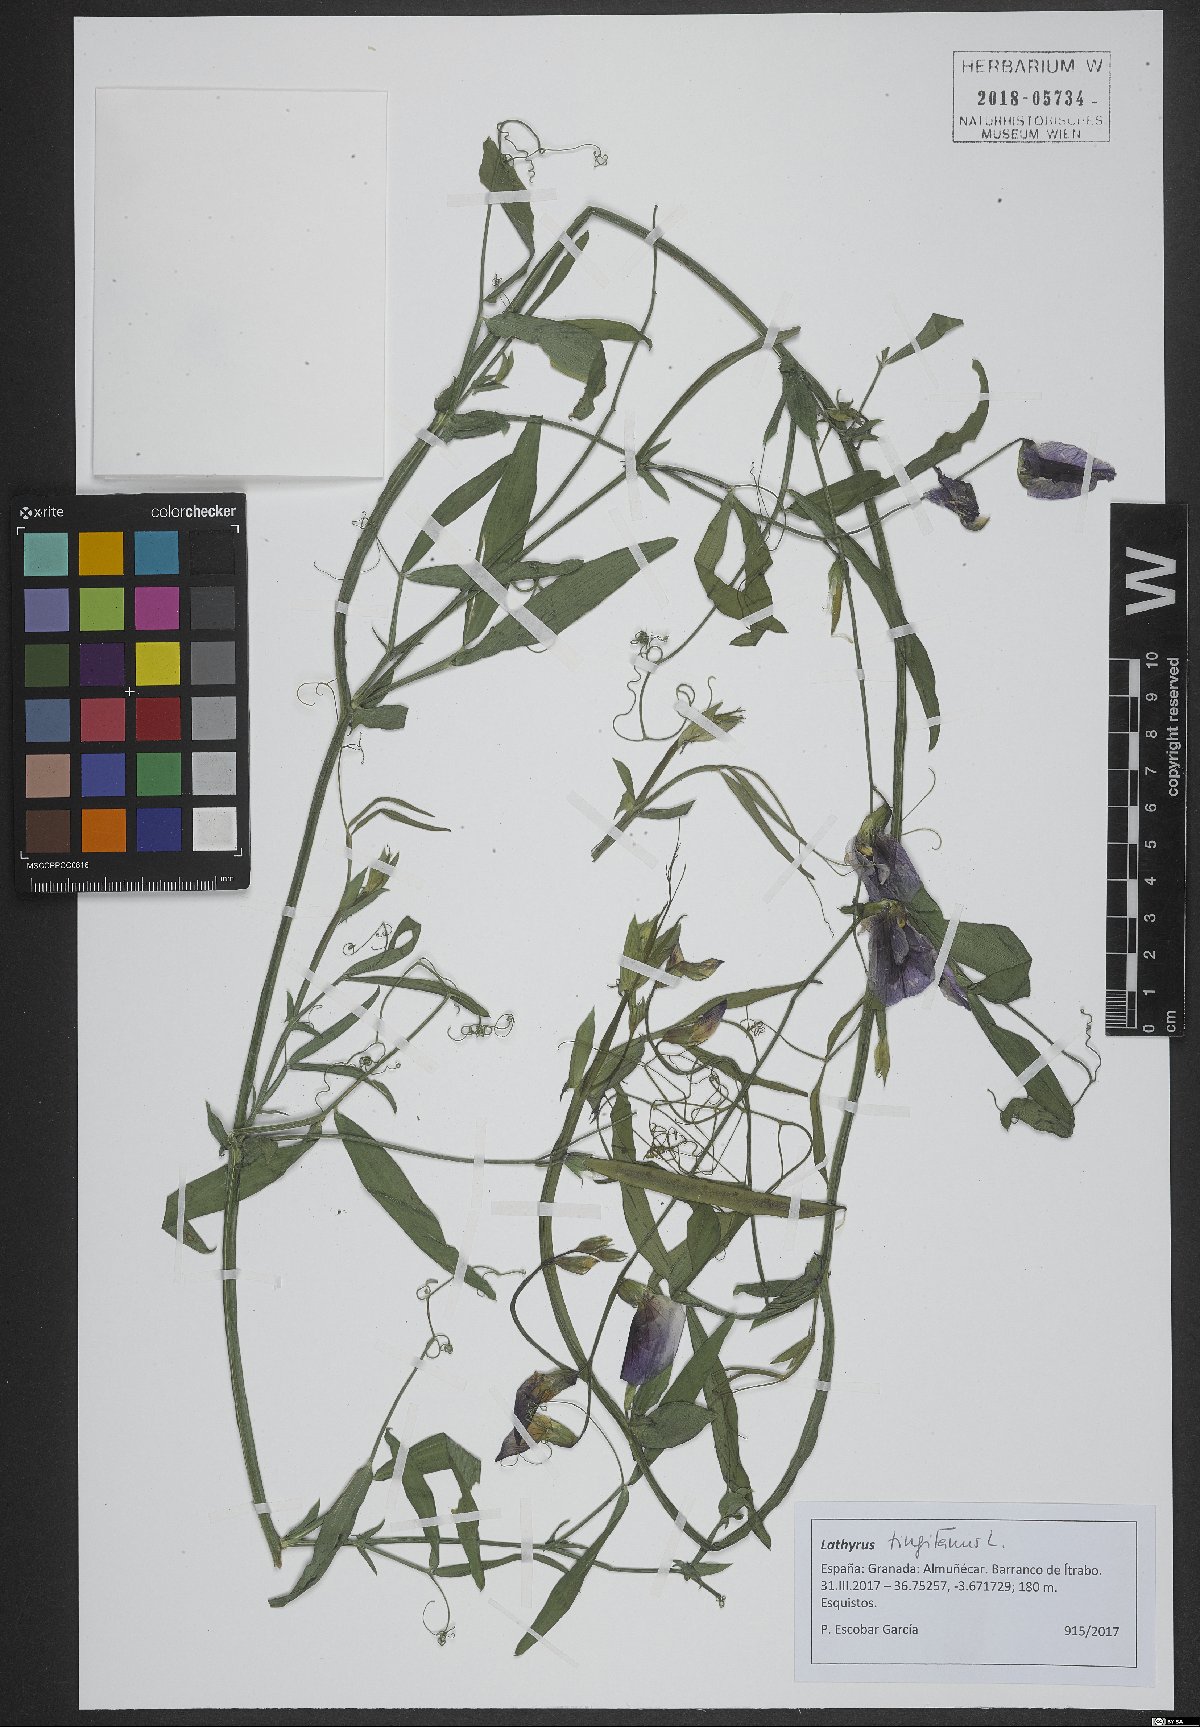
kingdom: Plantae
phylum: Tracheophyta
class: Magnoliopsida
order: Fabales
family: Fabaceae
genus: Lathyrus
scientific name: Lathyrus tingitanus
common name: Tangier pea
